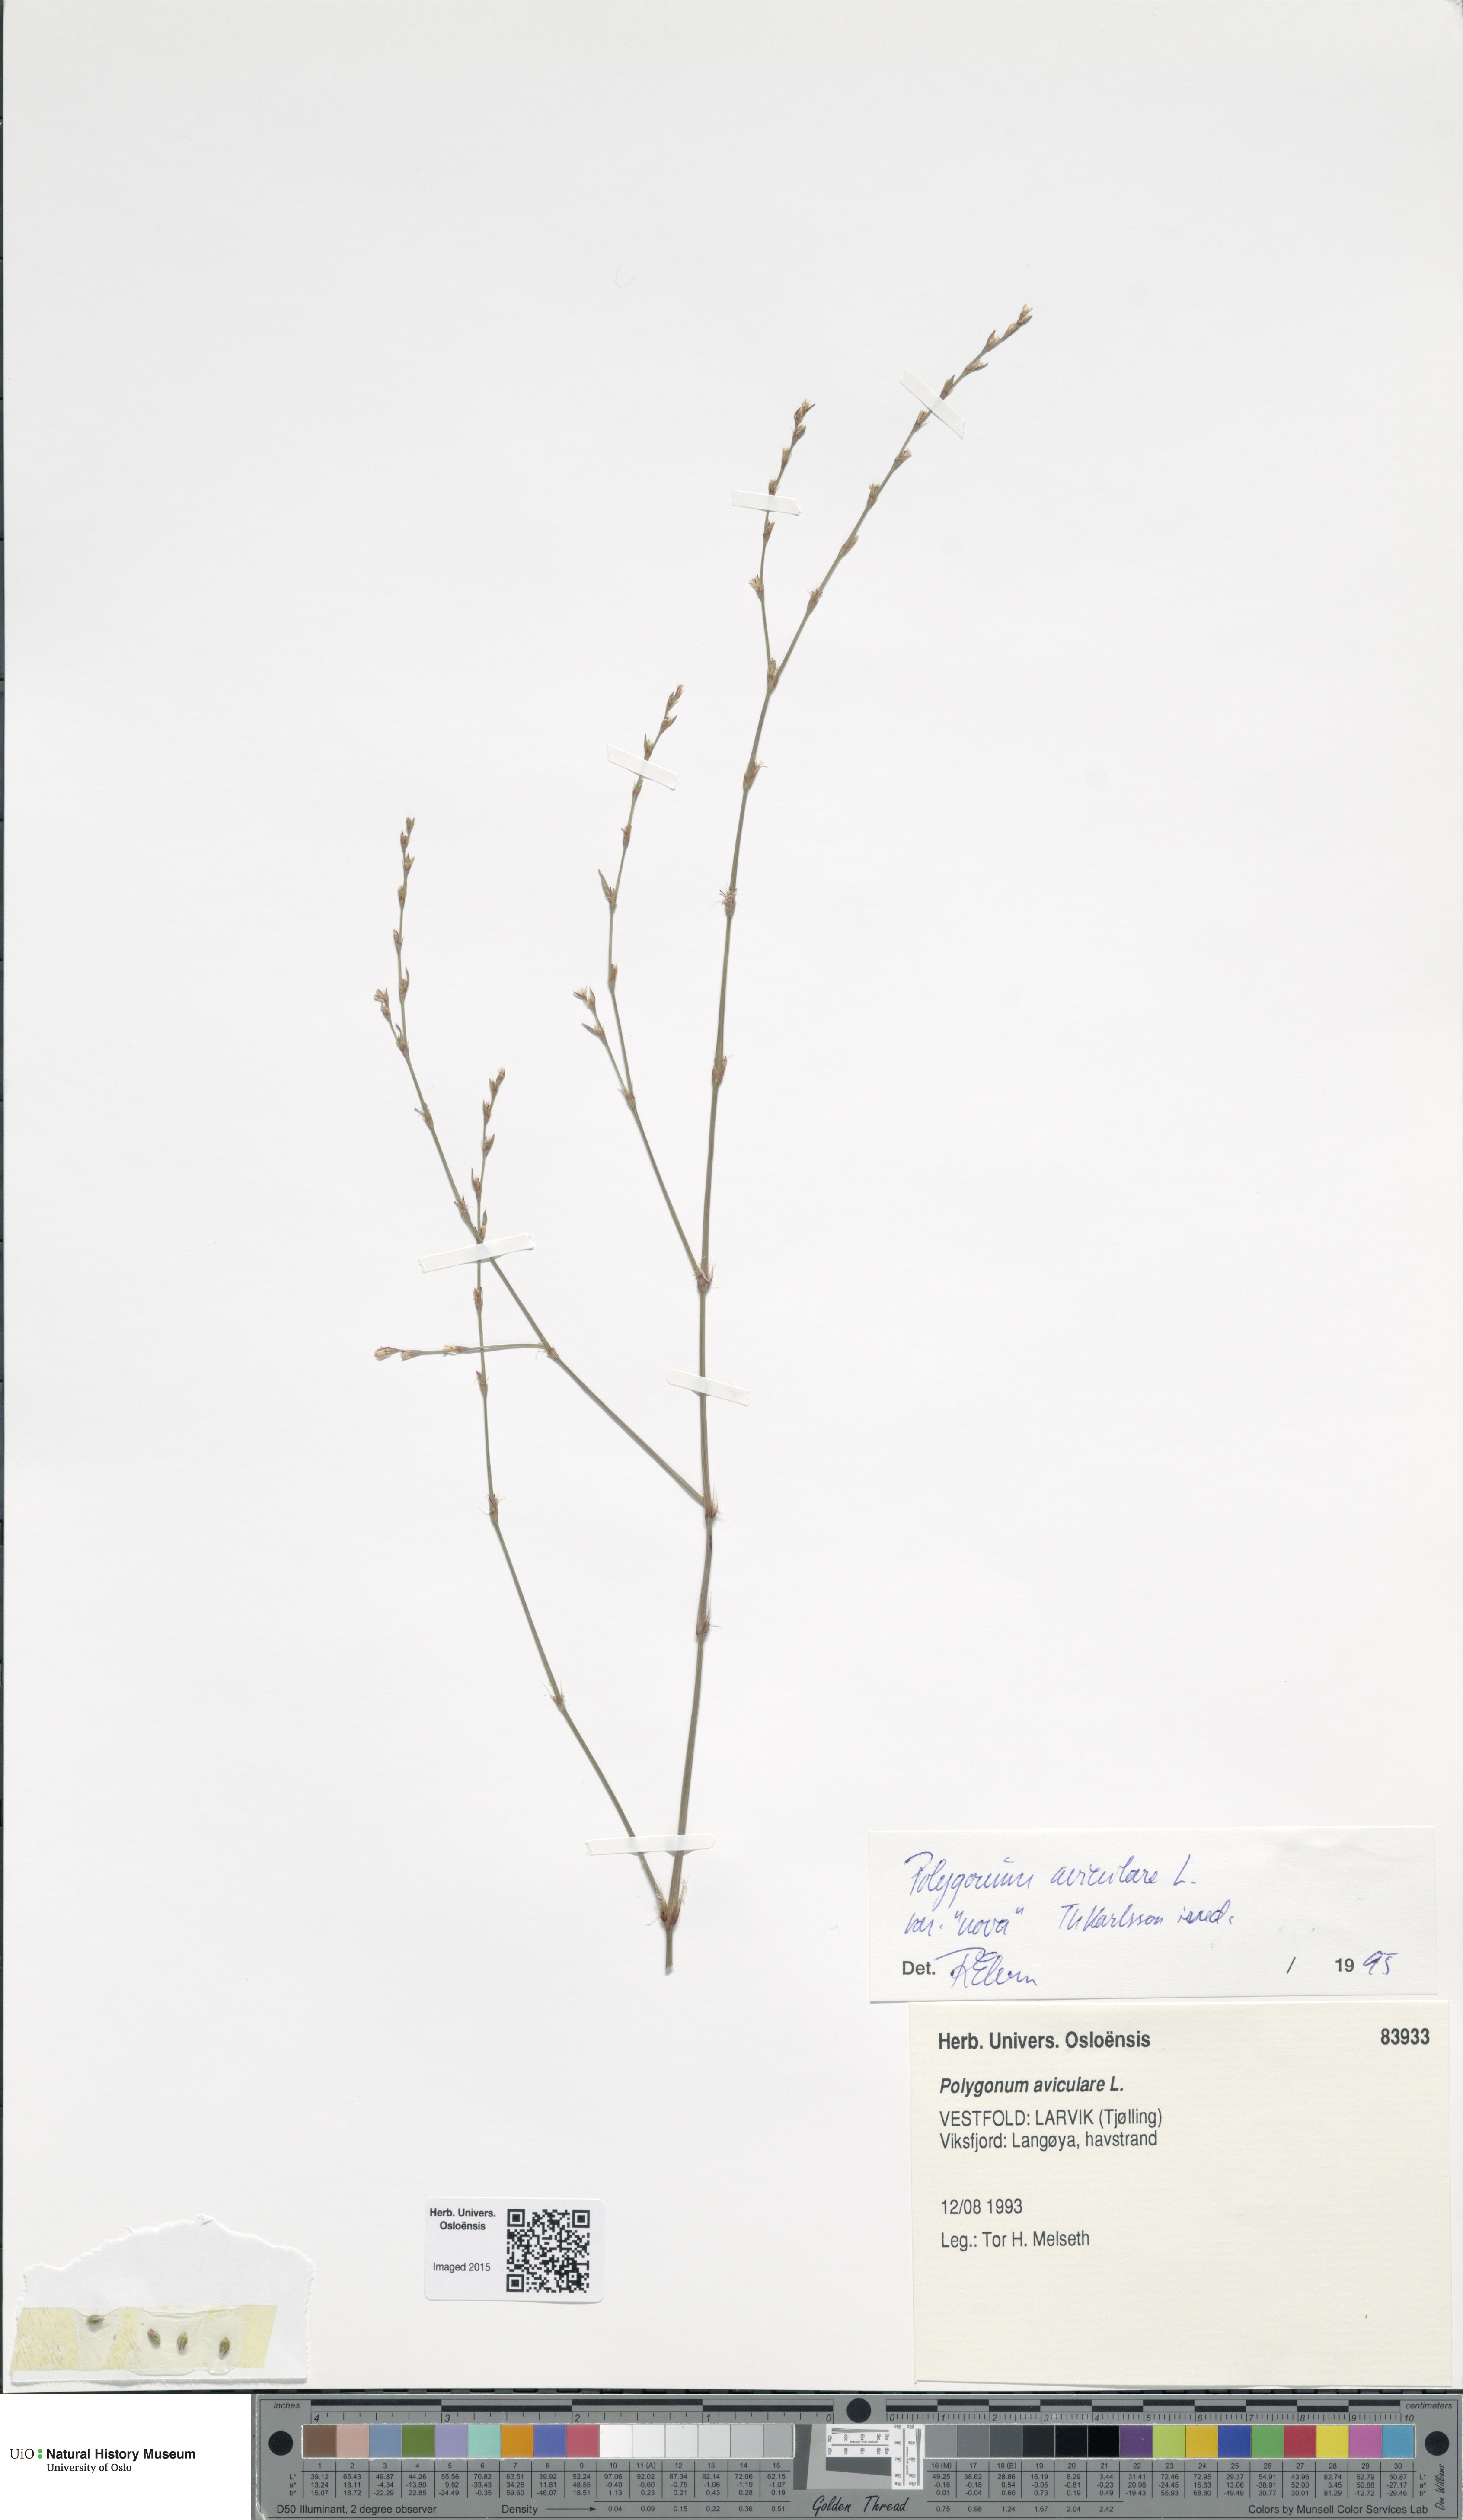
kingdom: Plantae
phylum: Tracheophyta
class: Magnoliopsida
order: Caryophyllales
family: Polygonaceae
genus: Polygonum
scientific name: Polygonum excelsius
